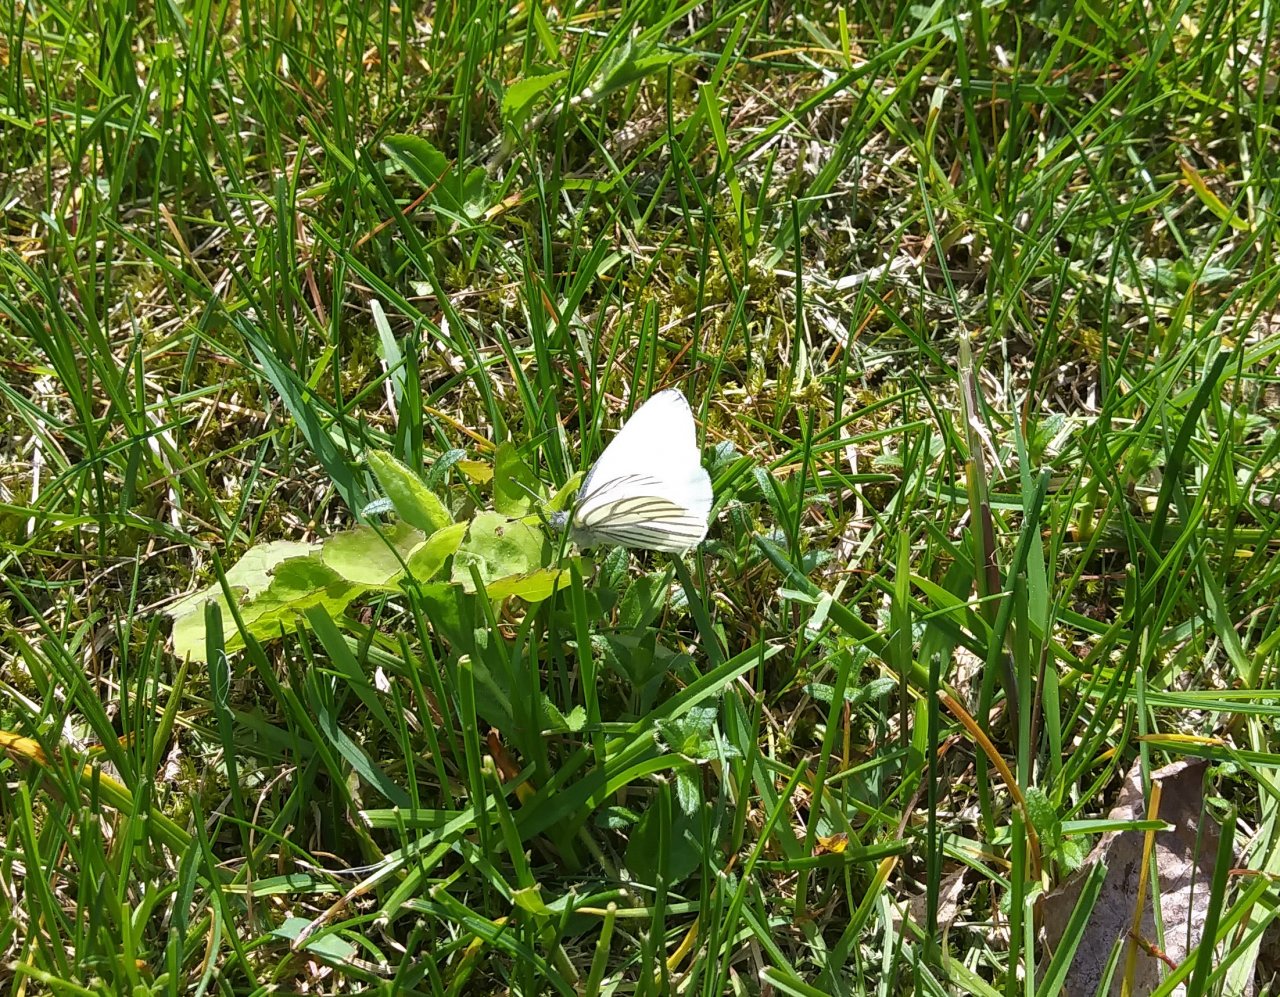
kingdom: Animalia
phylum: Arthropoda
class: Insecta
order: Lepidoptera
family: Pieridae
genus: Pieris
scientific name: Pieris oleracea
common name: Mustard White
